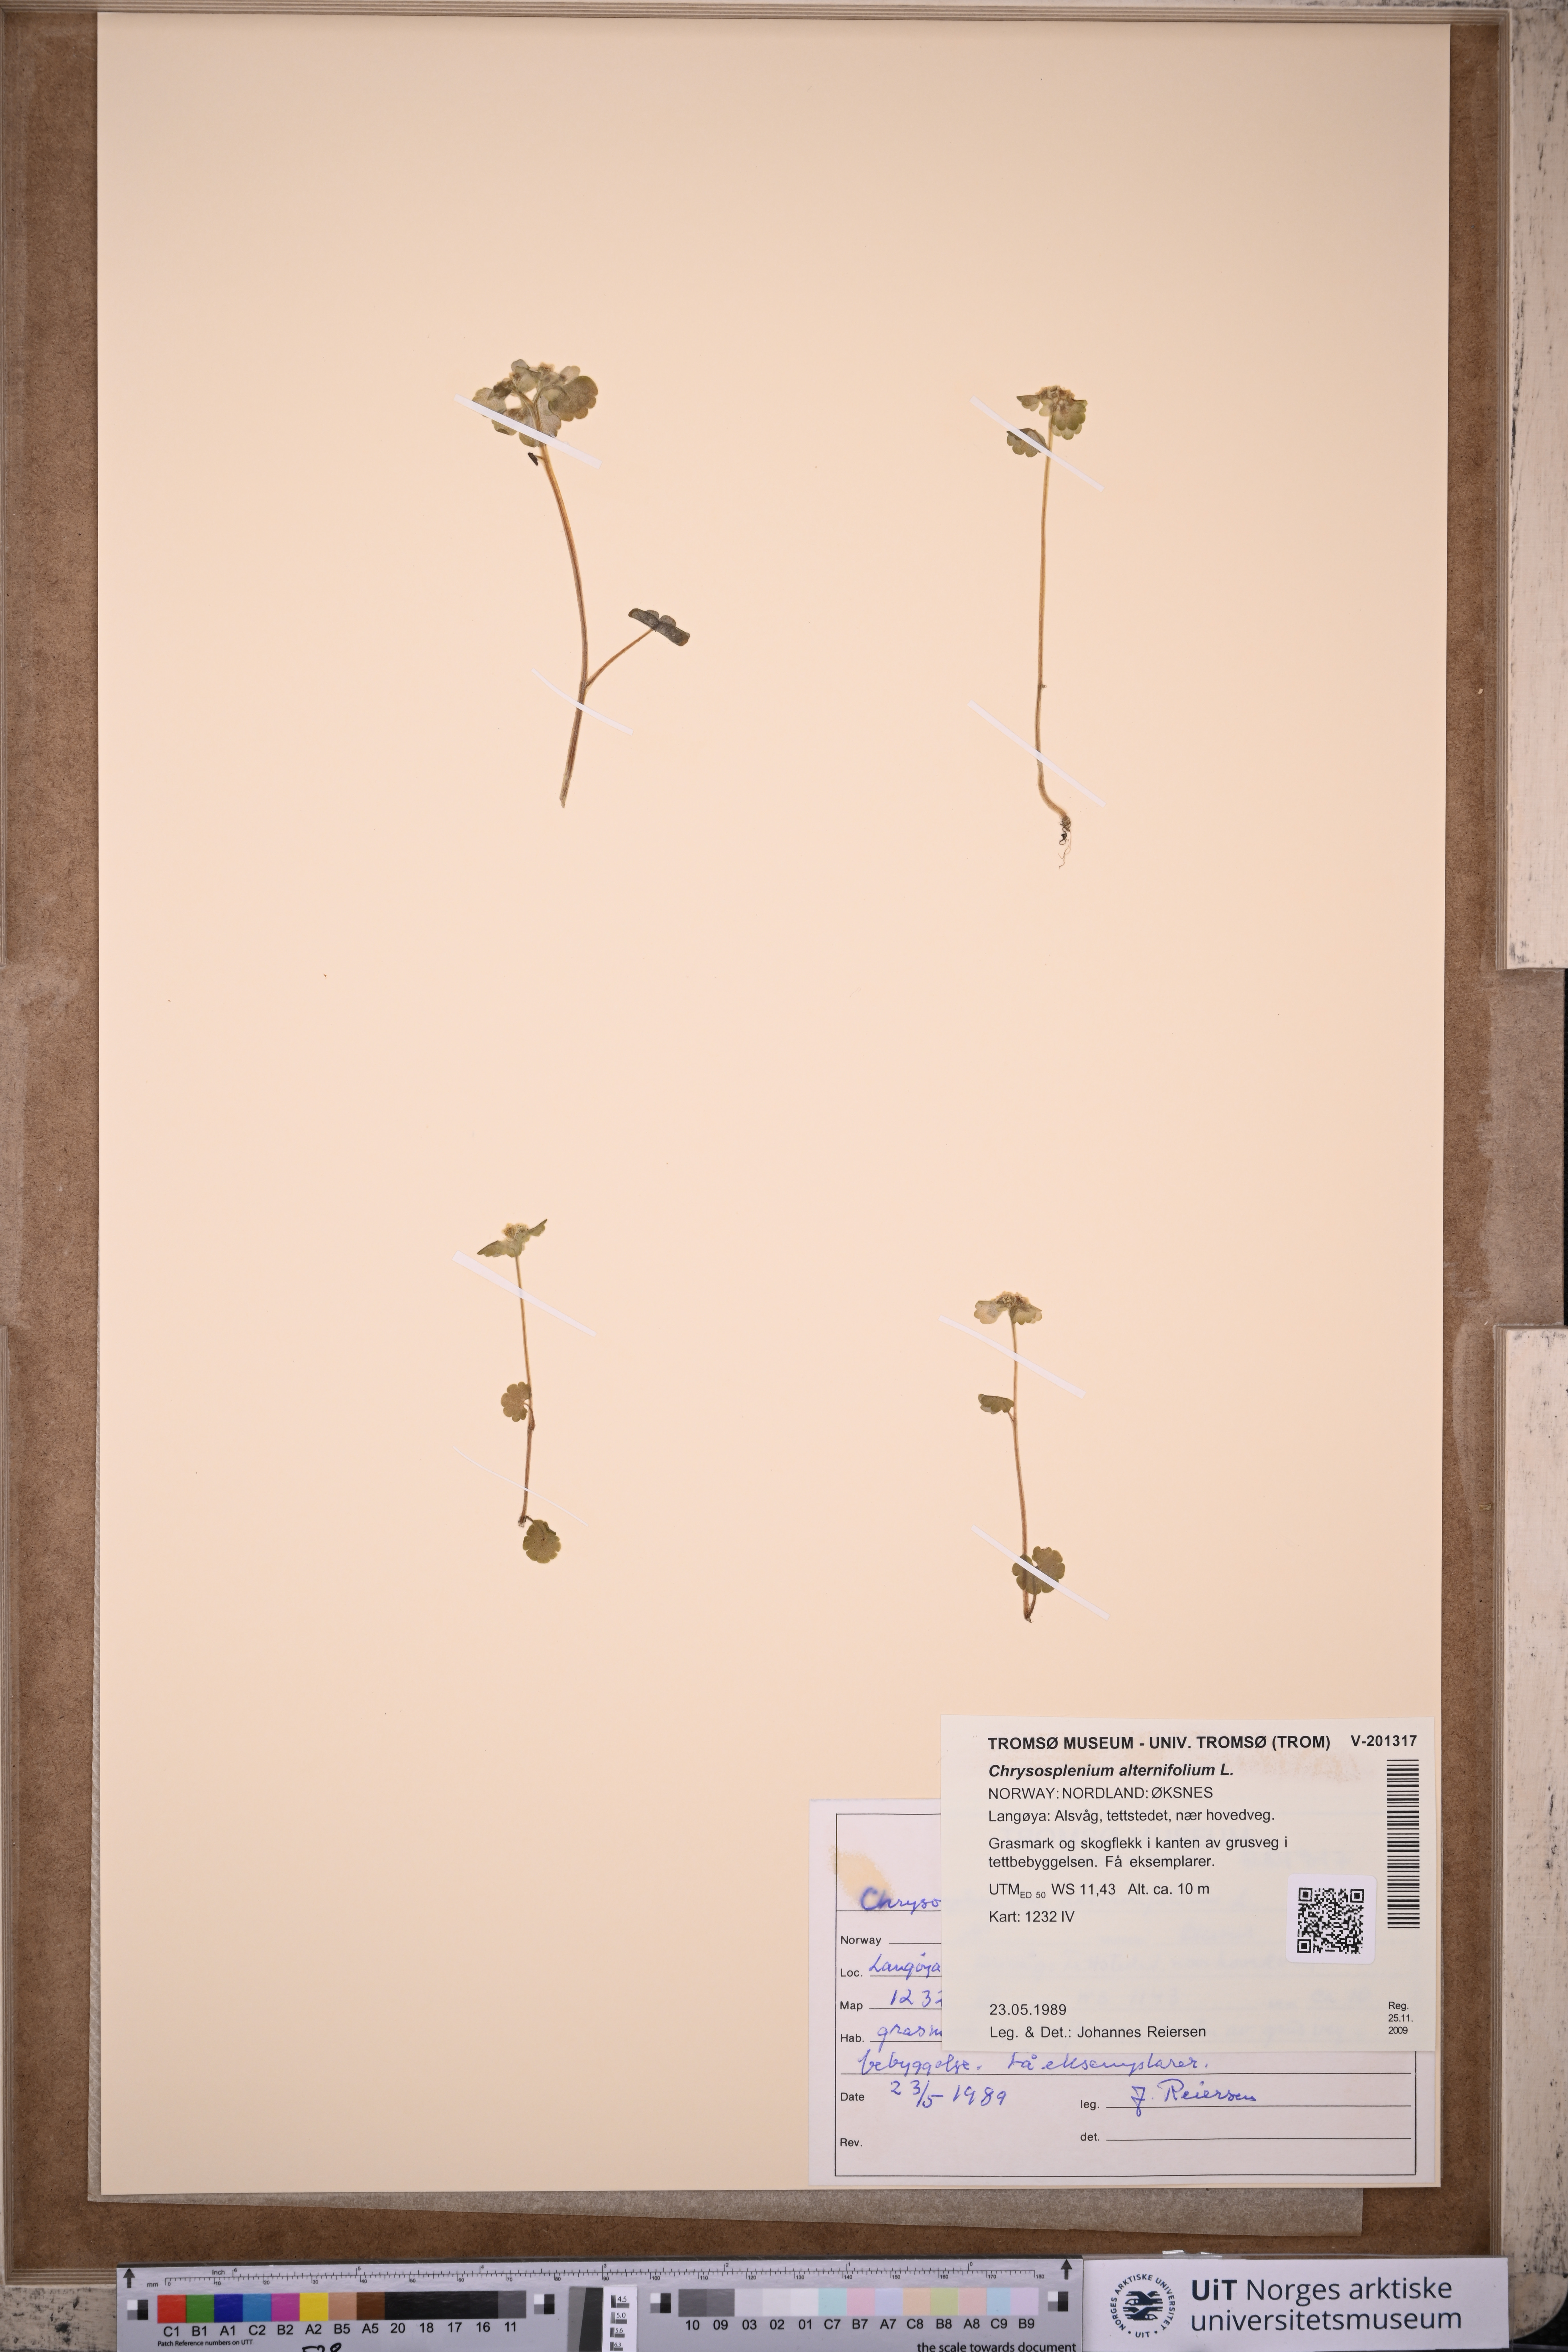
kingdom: Plantae
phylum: Tracheophyta
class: Magnoliopsida
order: Saxifragales
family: Saxifragaceae
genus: Chrysosplenium
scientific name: Chrysosplenium alternifolium
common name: Alternate-leaved golden-saxifrage
